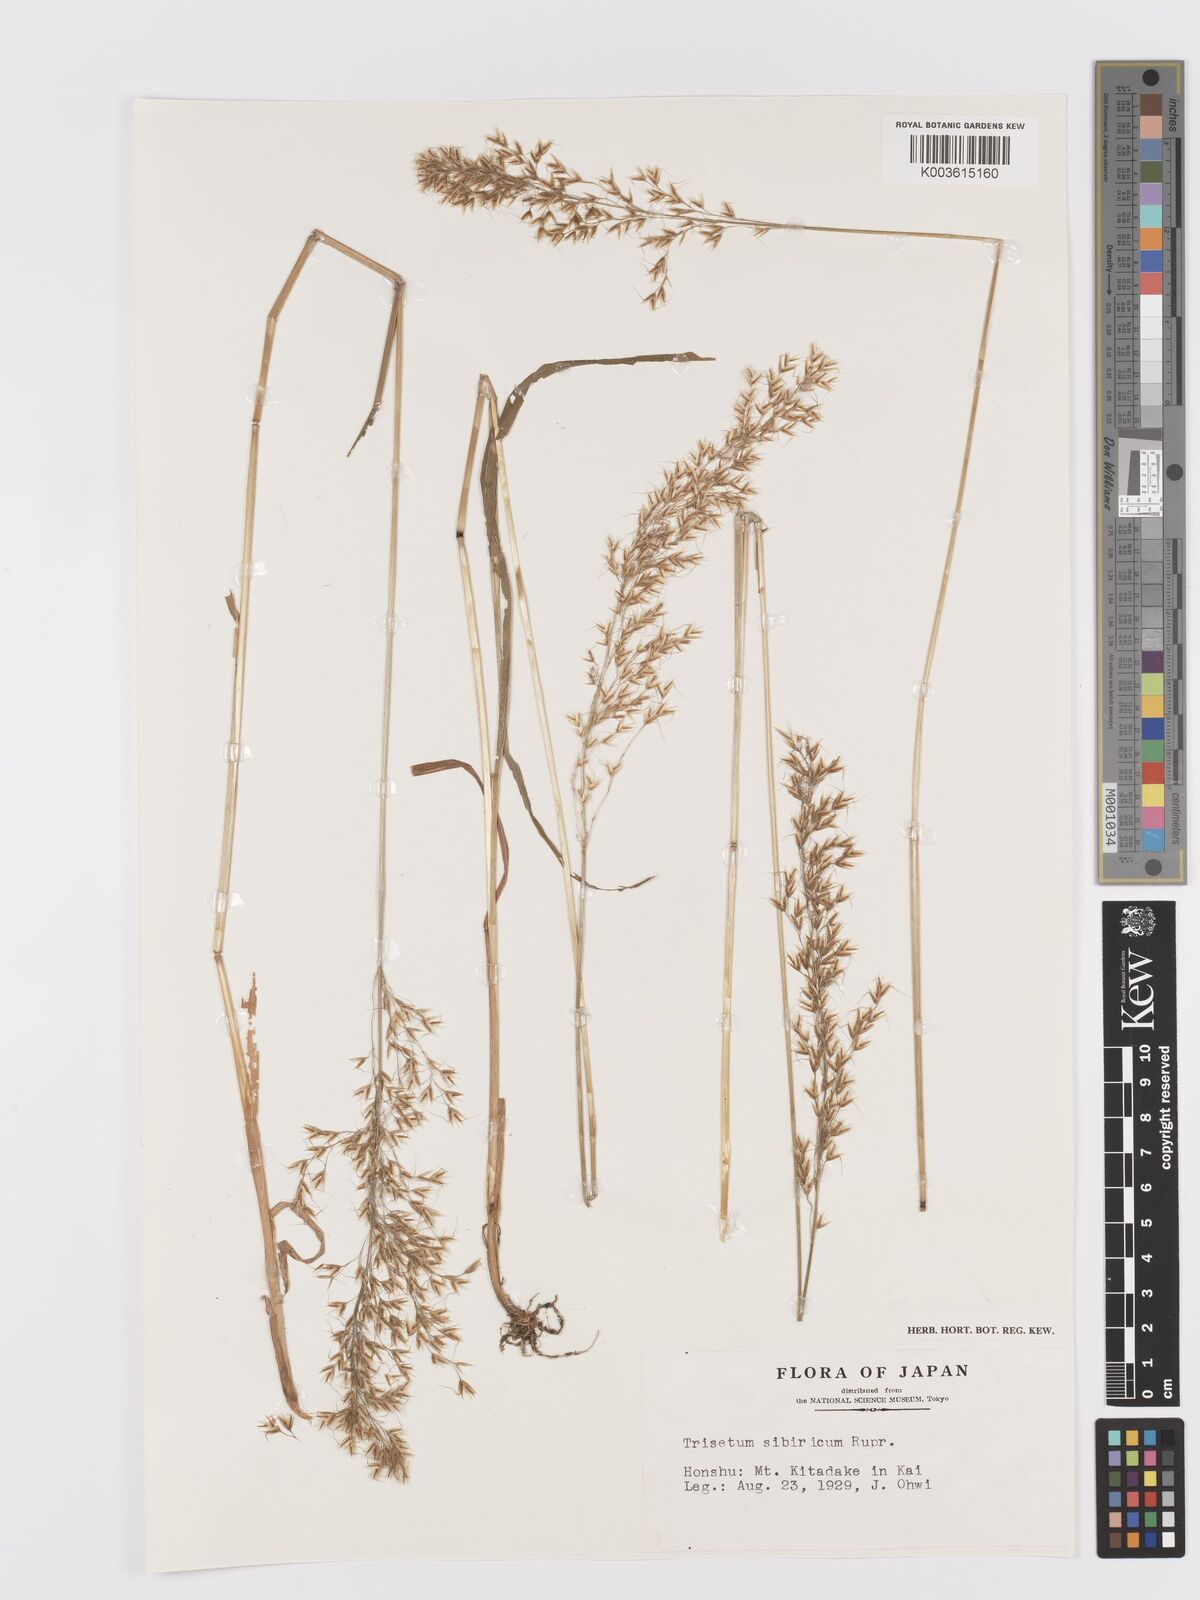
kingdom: Plantae
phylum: Tracheophyta
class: Liliopsida
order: Poales
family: Poaceae
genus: Sibirotrisetum
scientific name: Sibirotrisetum sibiricum
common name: Siberian false oat
